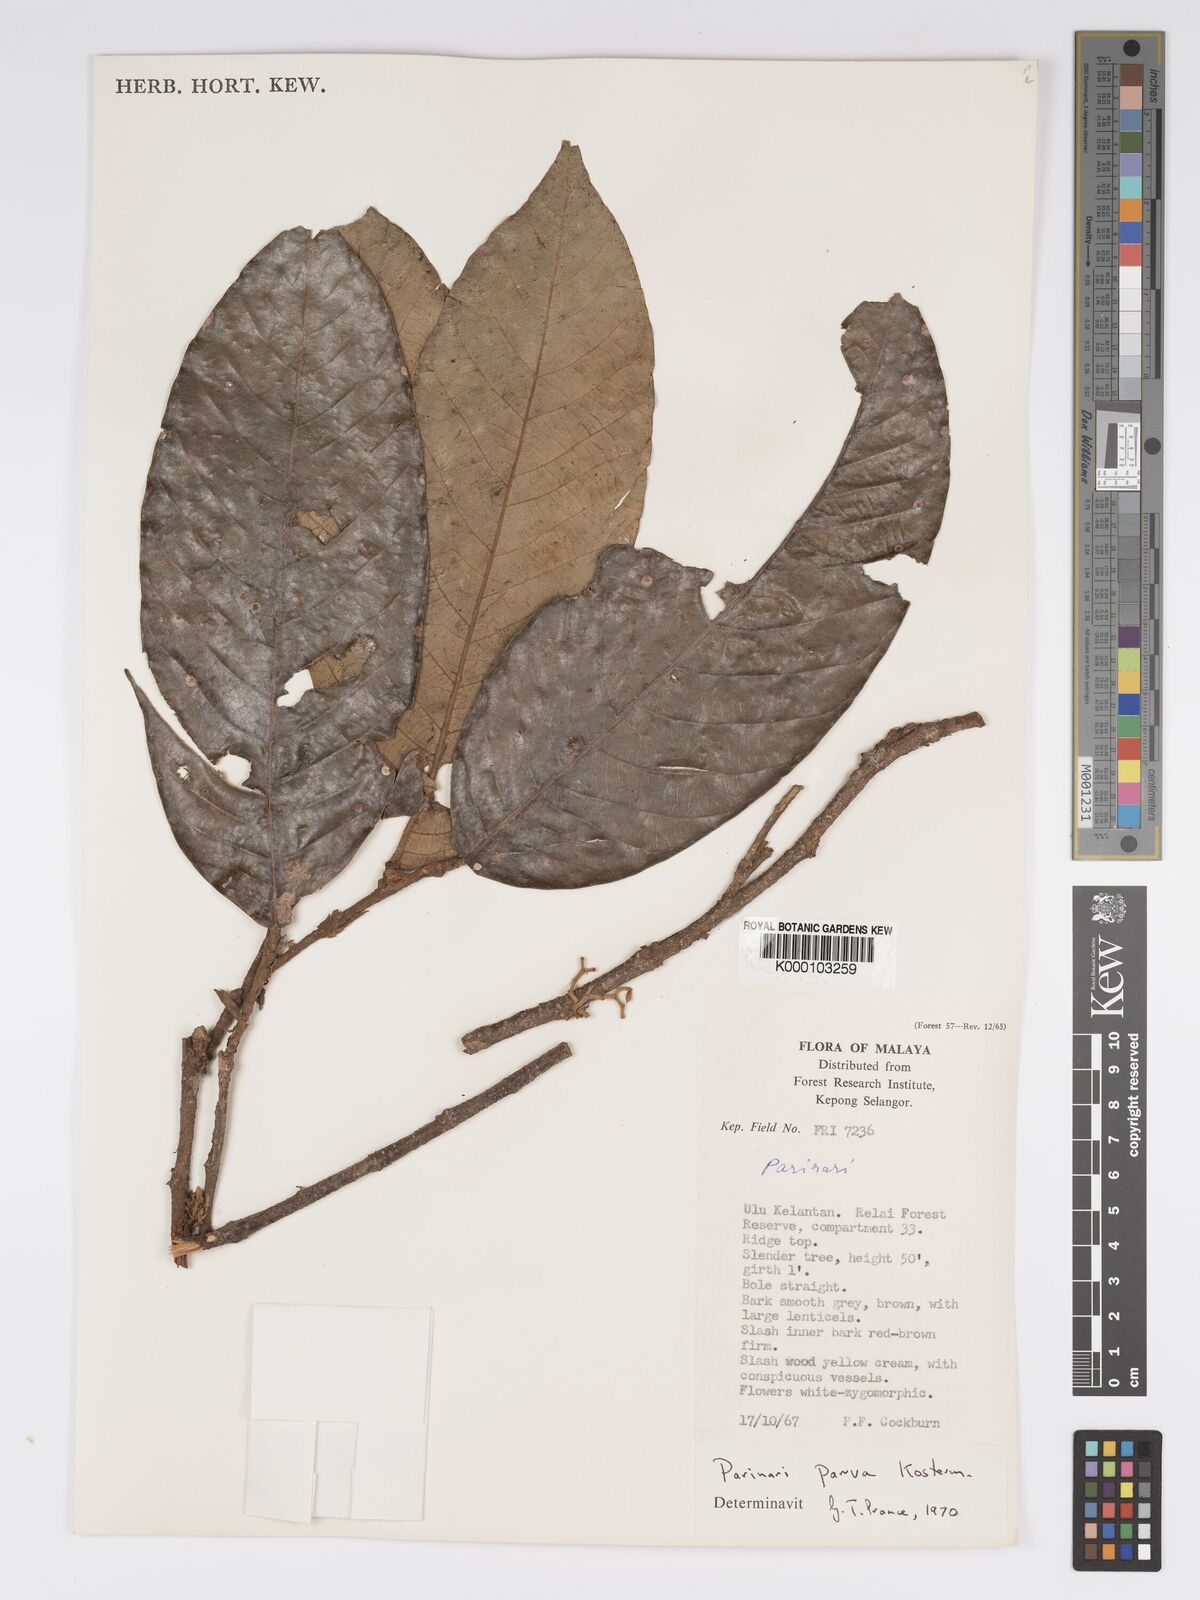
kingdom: Plantae
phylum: Tracheophyta
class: Magnoliopsida
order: Malpighiales
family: Chrysobalanaceae
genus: Parinari
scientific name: Parinari parva
